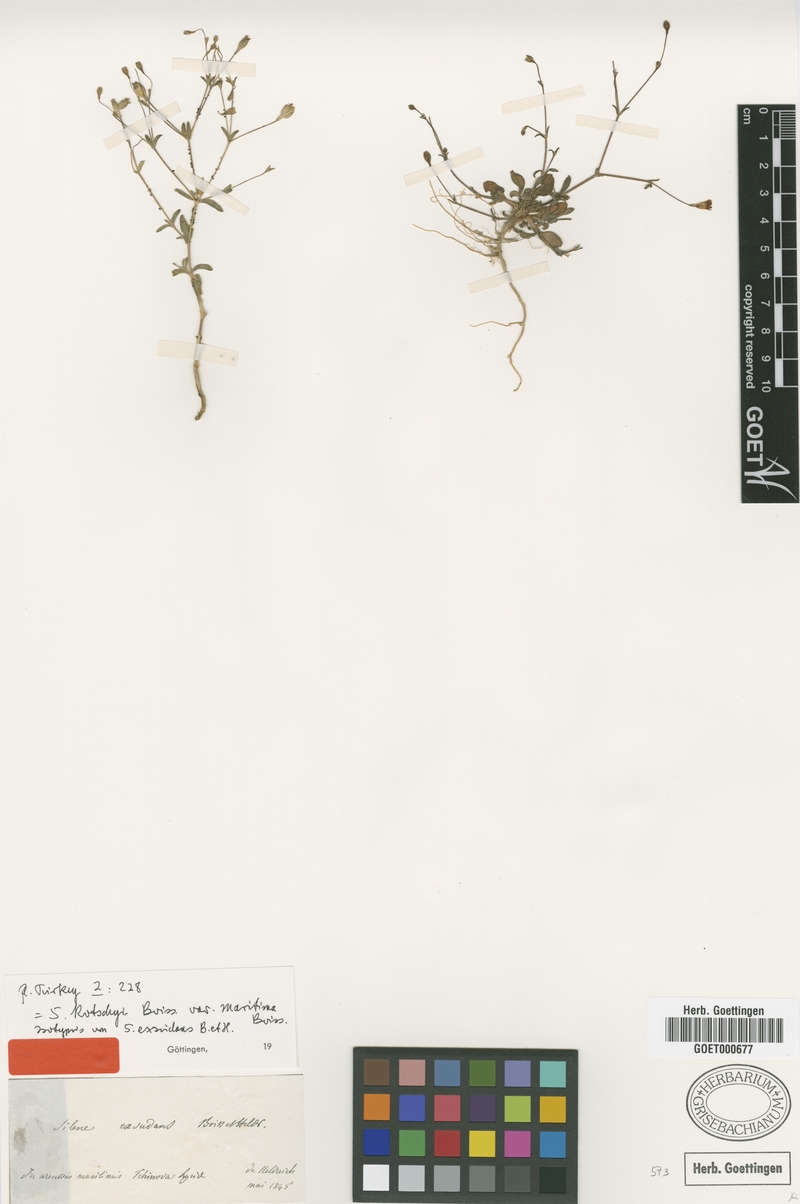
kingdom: Plantae
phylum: Tracheophyta
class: Magnoliopsida
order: Caryophyllales
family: Caryophyllaceae
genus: Silene
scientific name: Silene microsperma
